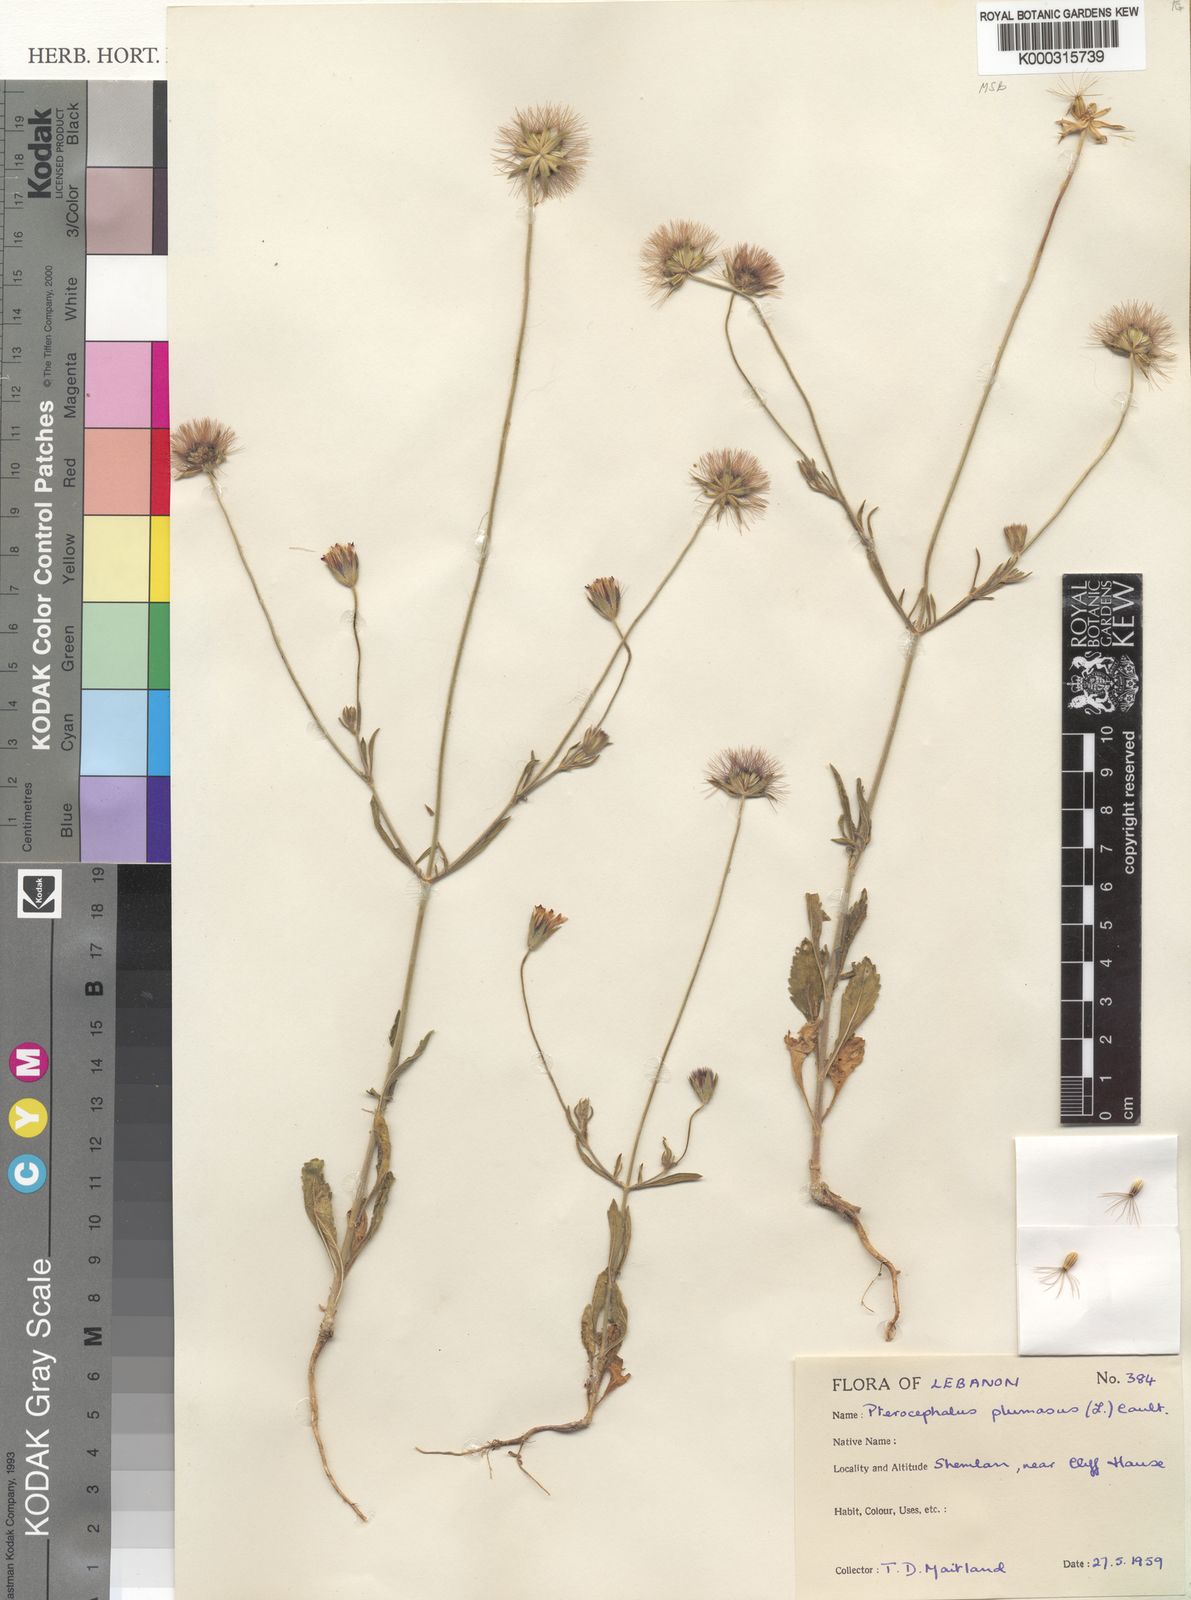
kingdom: Plantae
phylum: Tracheophyta
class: Magnoliopsida
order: Dipsacales
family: Caprifoliaceae
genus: Pterocephalus
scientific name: Pterocephalus plumosus
